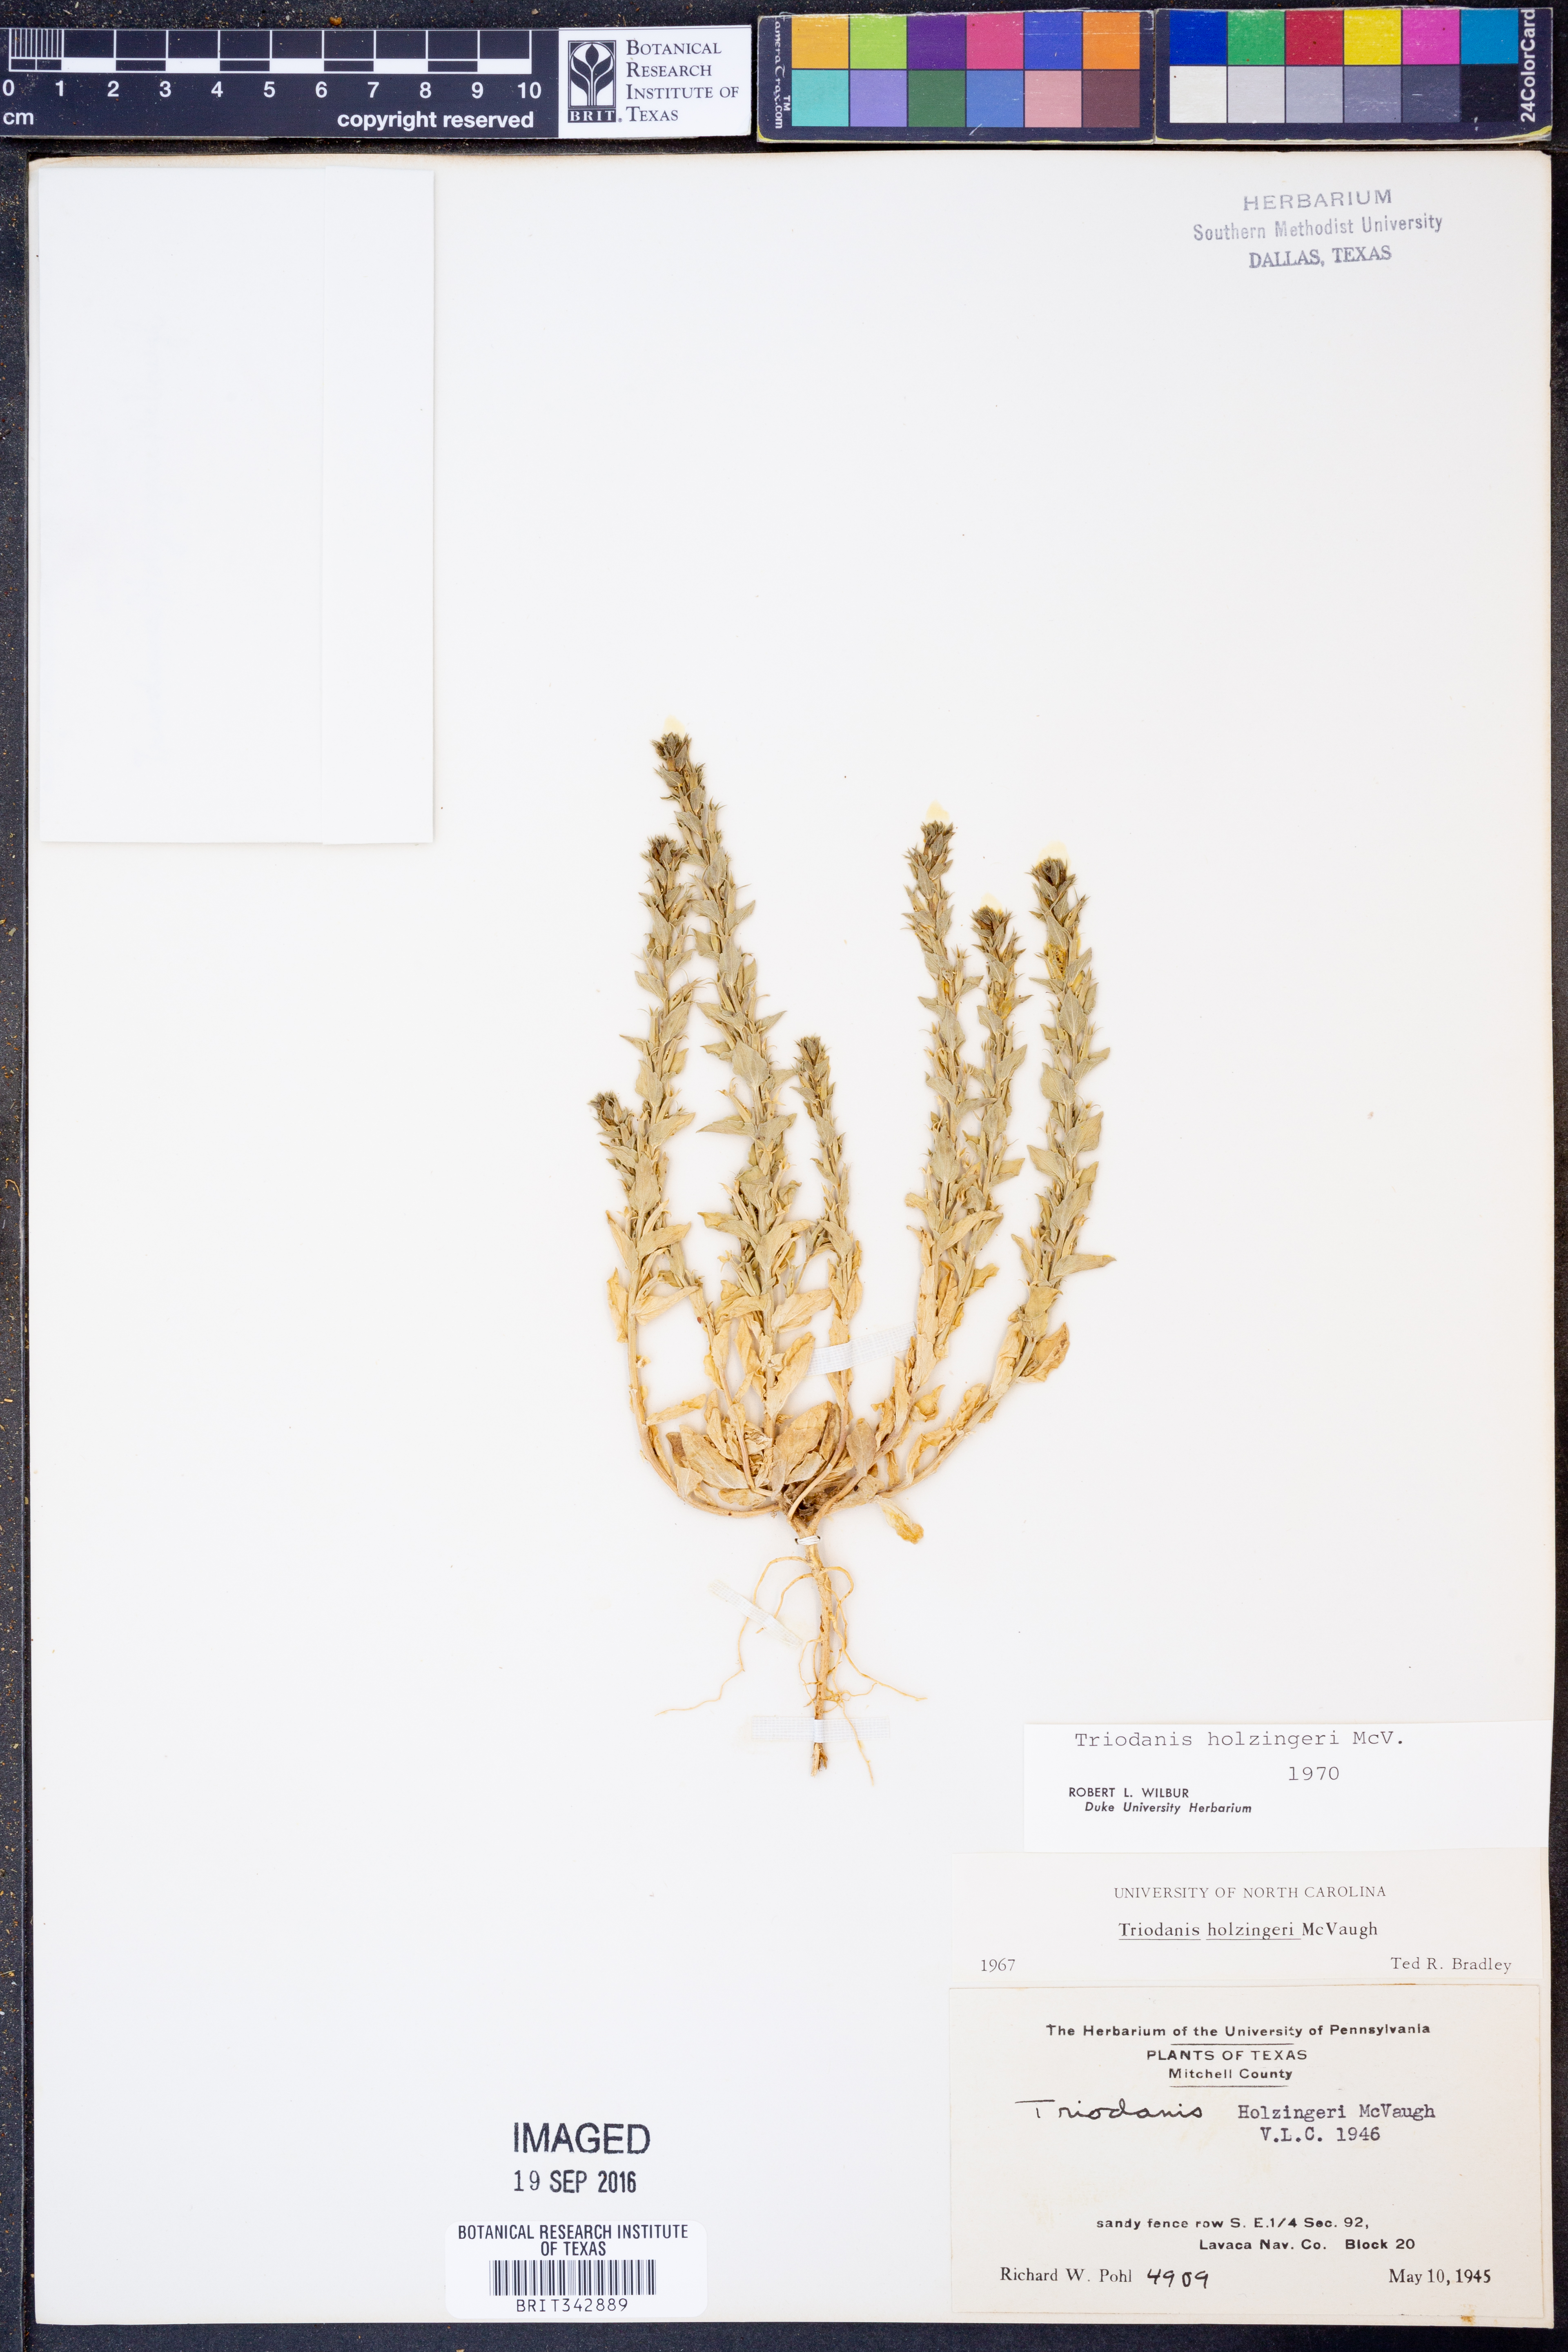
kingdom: Plantae
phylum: Tracheophyta
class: Magnoliopsida
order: Asterales
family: Campanulaceae
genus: Triodanis
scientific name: Triodanis holzingeri
